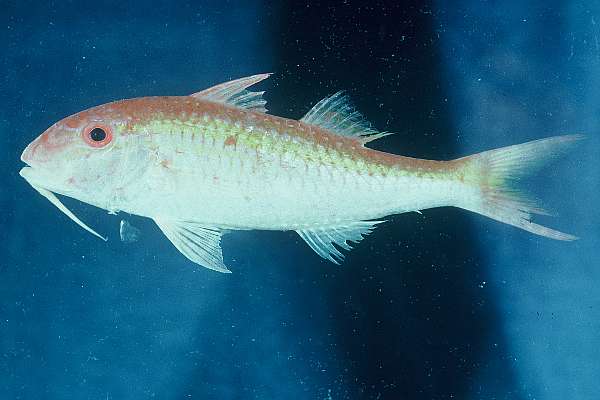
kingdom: Animalia
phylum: Chordata
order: Perciformes
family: Mullidae
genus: Parupeneus
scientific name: Parupeneus cyclostomus
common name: Goldsaddle goatfish
